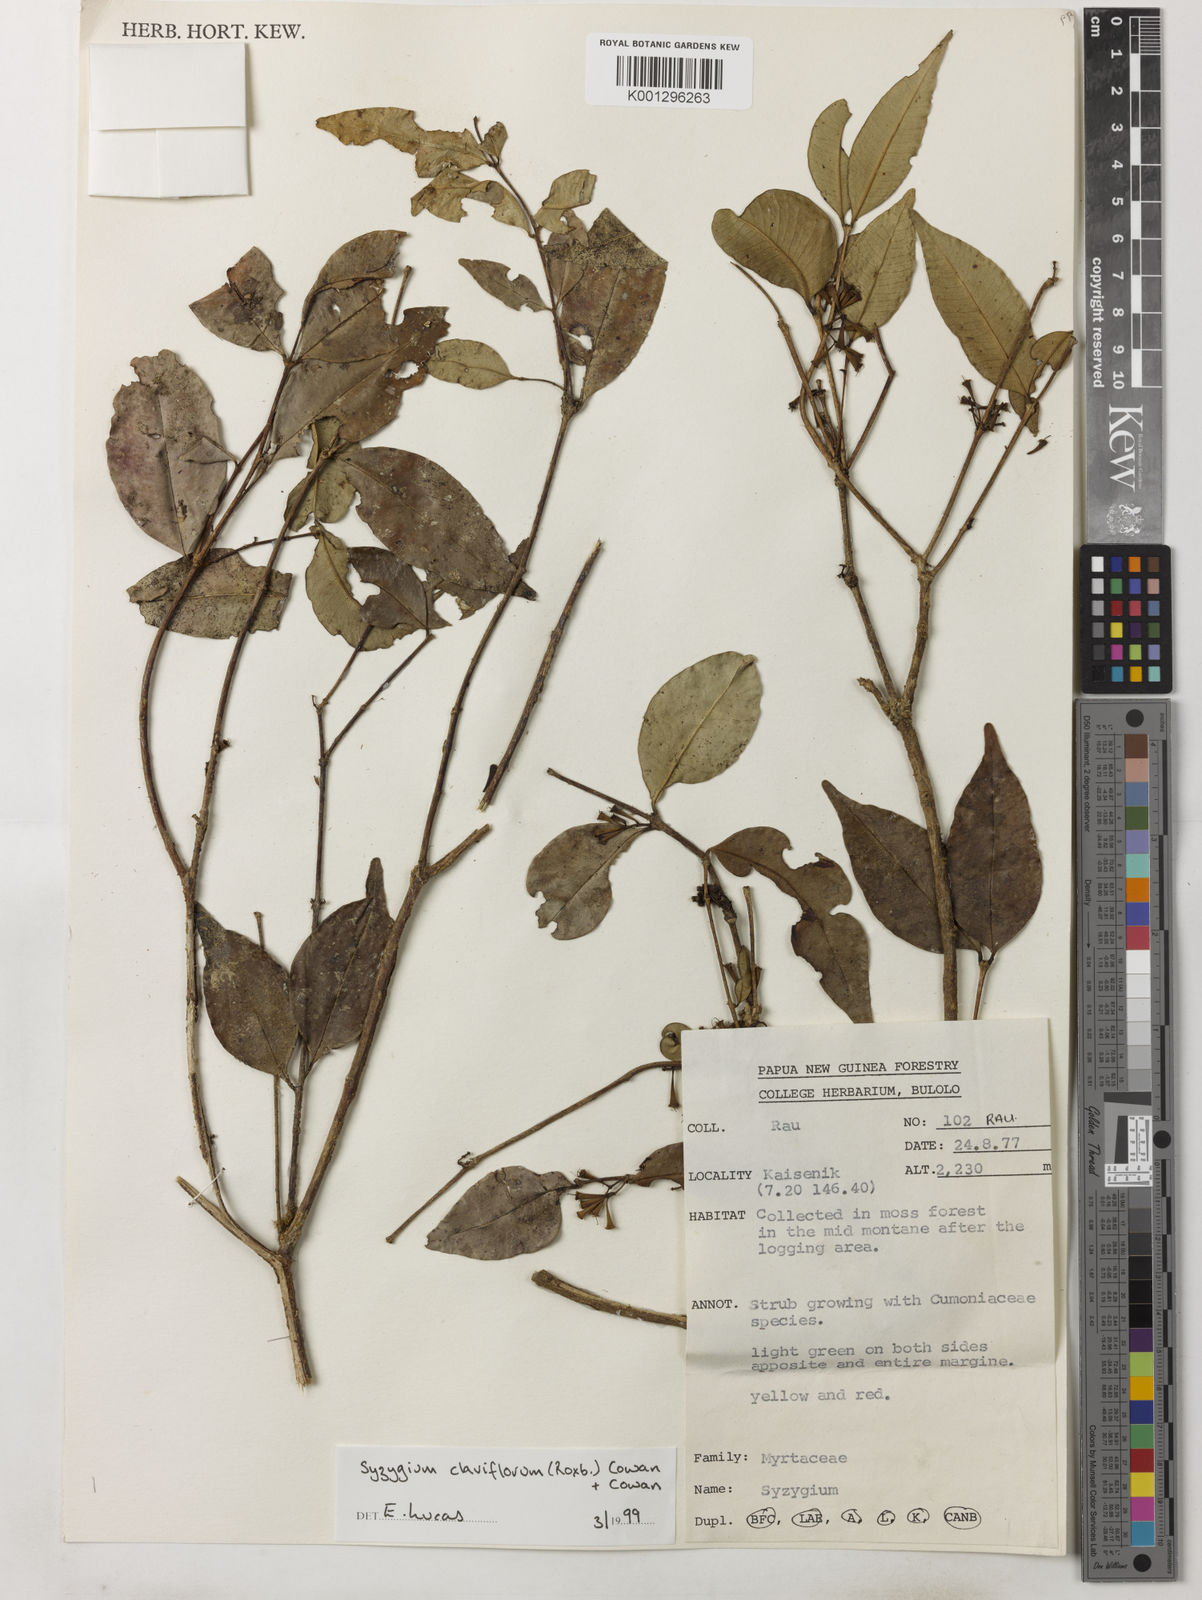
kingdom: Plantae
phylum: Tracheophyta
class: Magnoliopsida
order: Myrtales
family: Myrtaceae
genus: Syzygium
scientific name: Syzygium claviflorum
